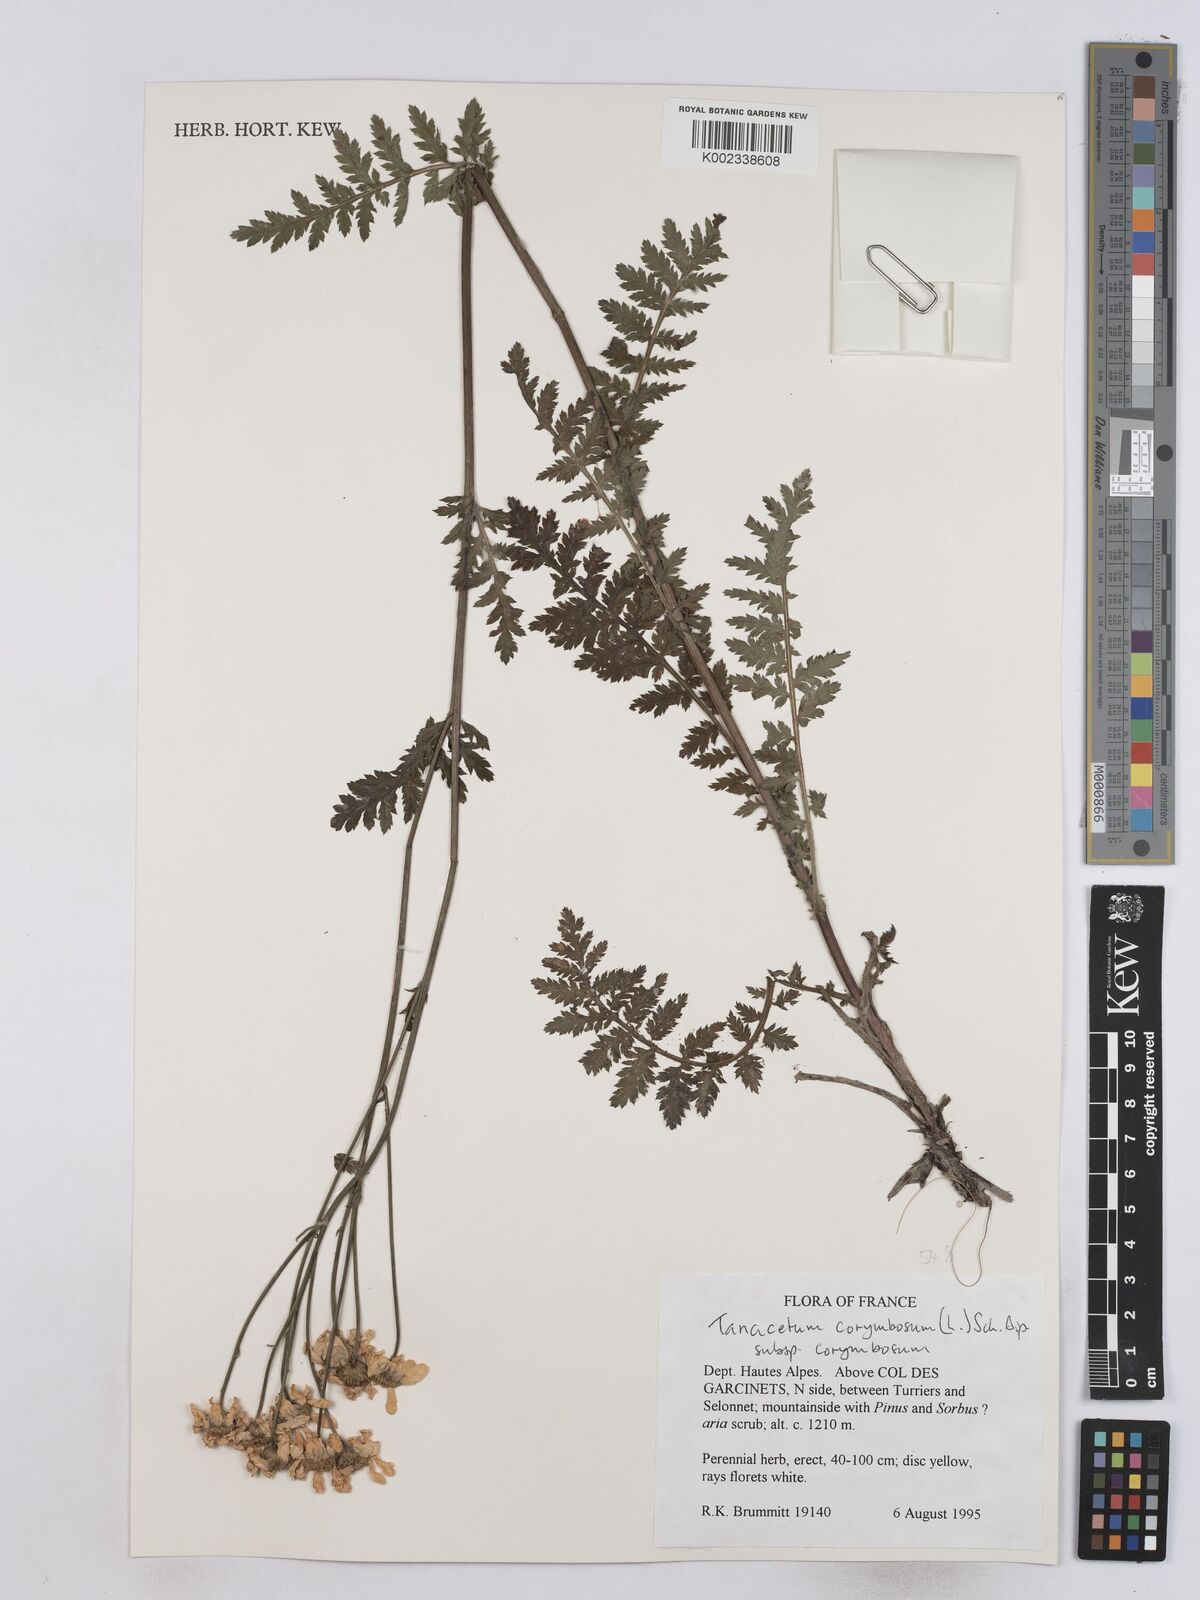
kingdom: Plantae
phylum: Tracheophyta
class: Magnoliopsida
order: Asterales
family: Asteraceae
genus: Tanacetum
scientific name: Tanacetum corymbosum
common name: Scentless feverfew
